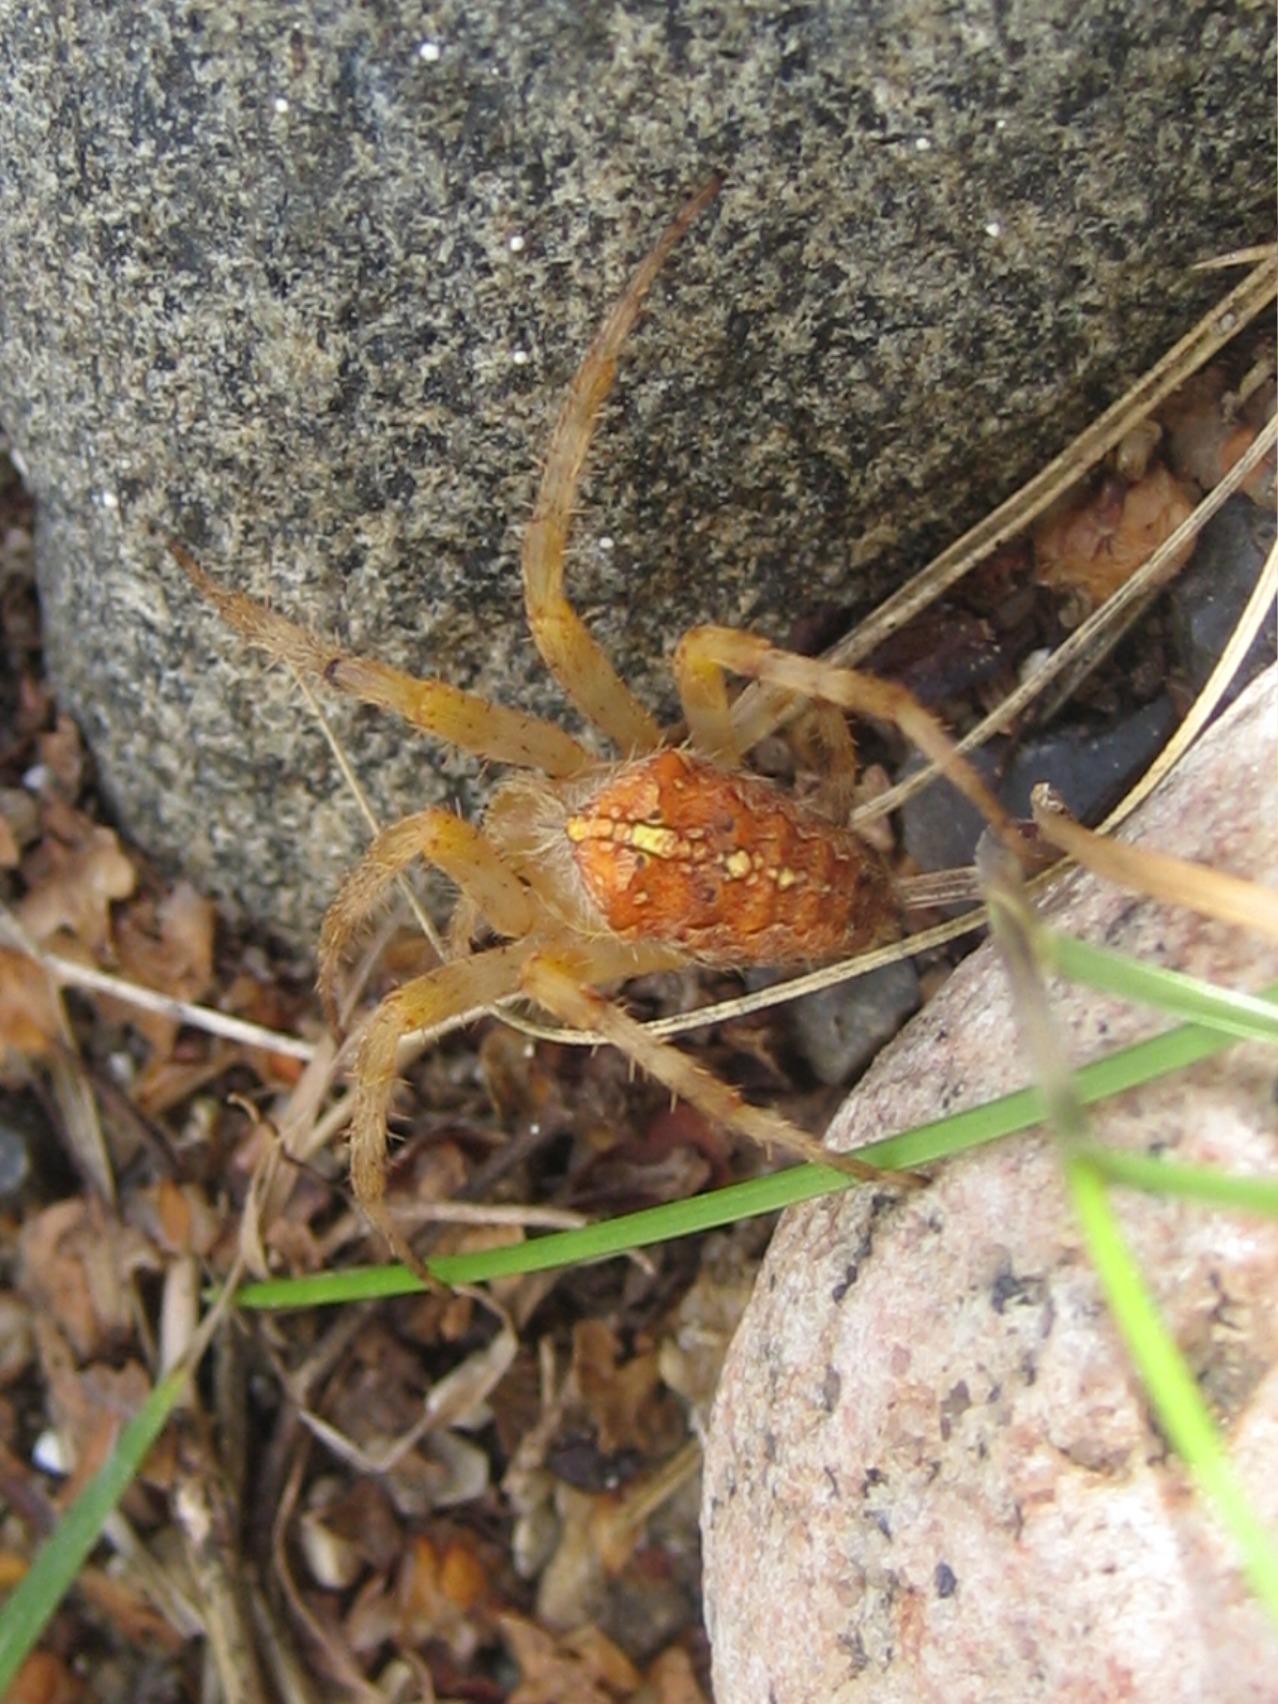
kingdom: Animalia
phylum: Arthropoda
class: Arachnida
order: Araneae
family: Araneidae
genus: Araneus
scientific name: Araneus diadematus
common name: Korsedderkop
